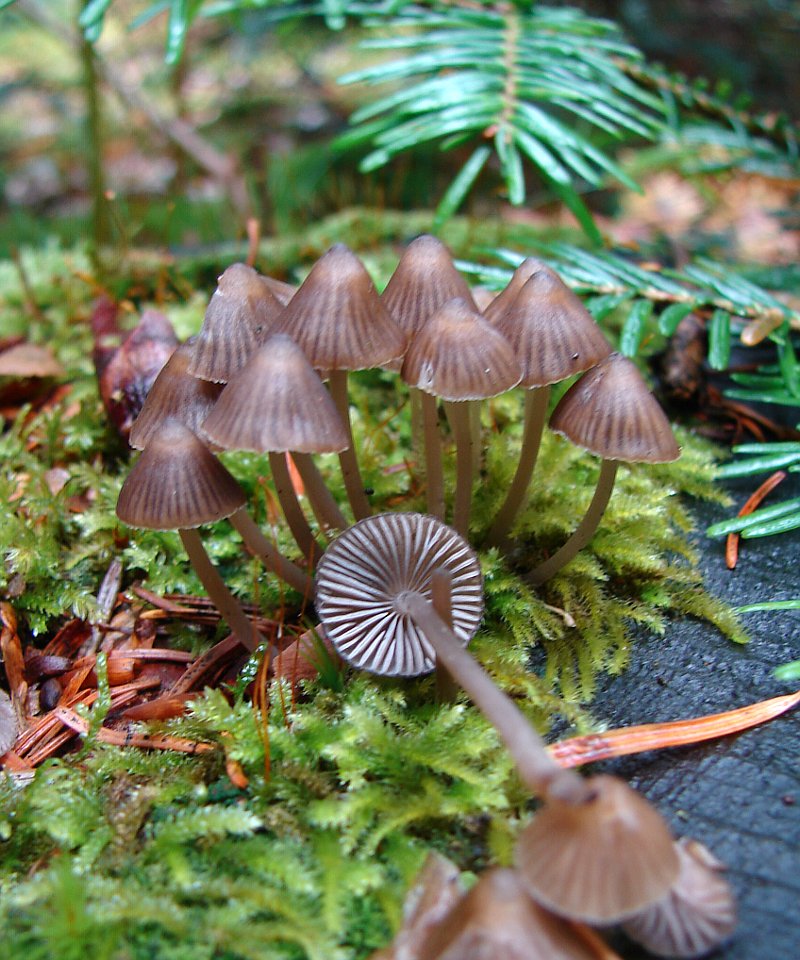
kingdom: Fungi
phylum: Basidiomycota
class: Agaricomycetes
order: Agaricales
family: Mycenaceae
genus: Mycena
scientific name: Mycena stipata
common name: stinkende huesvamp
